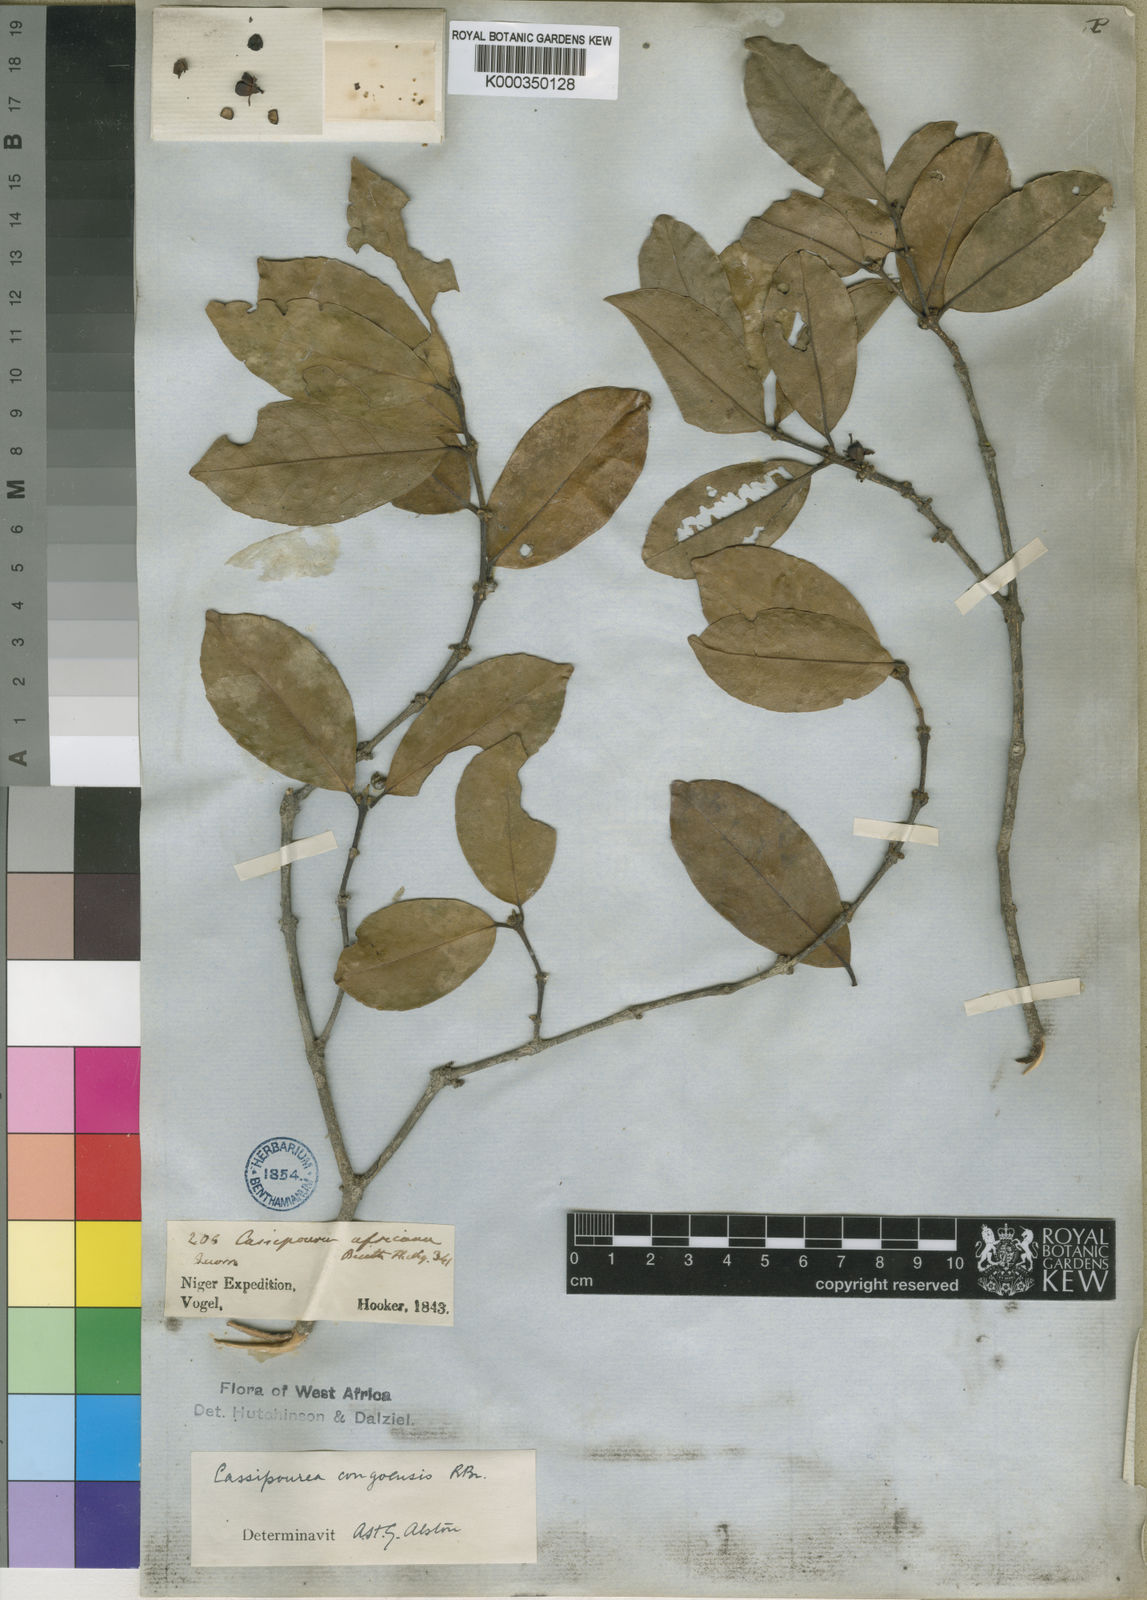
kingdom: Plantae
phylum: Tracheophyta
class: Magnoliopsida
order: Malpighiales
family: Rhizophoraceae
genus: Cassipourea
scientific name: Cassipourea
